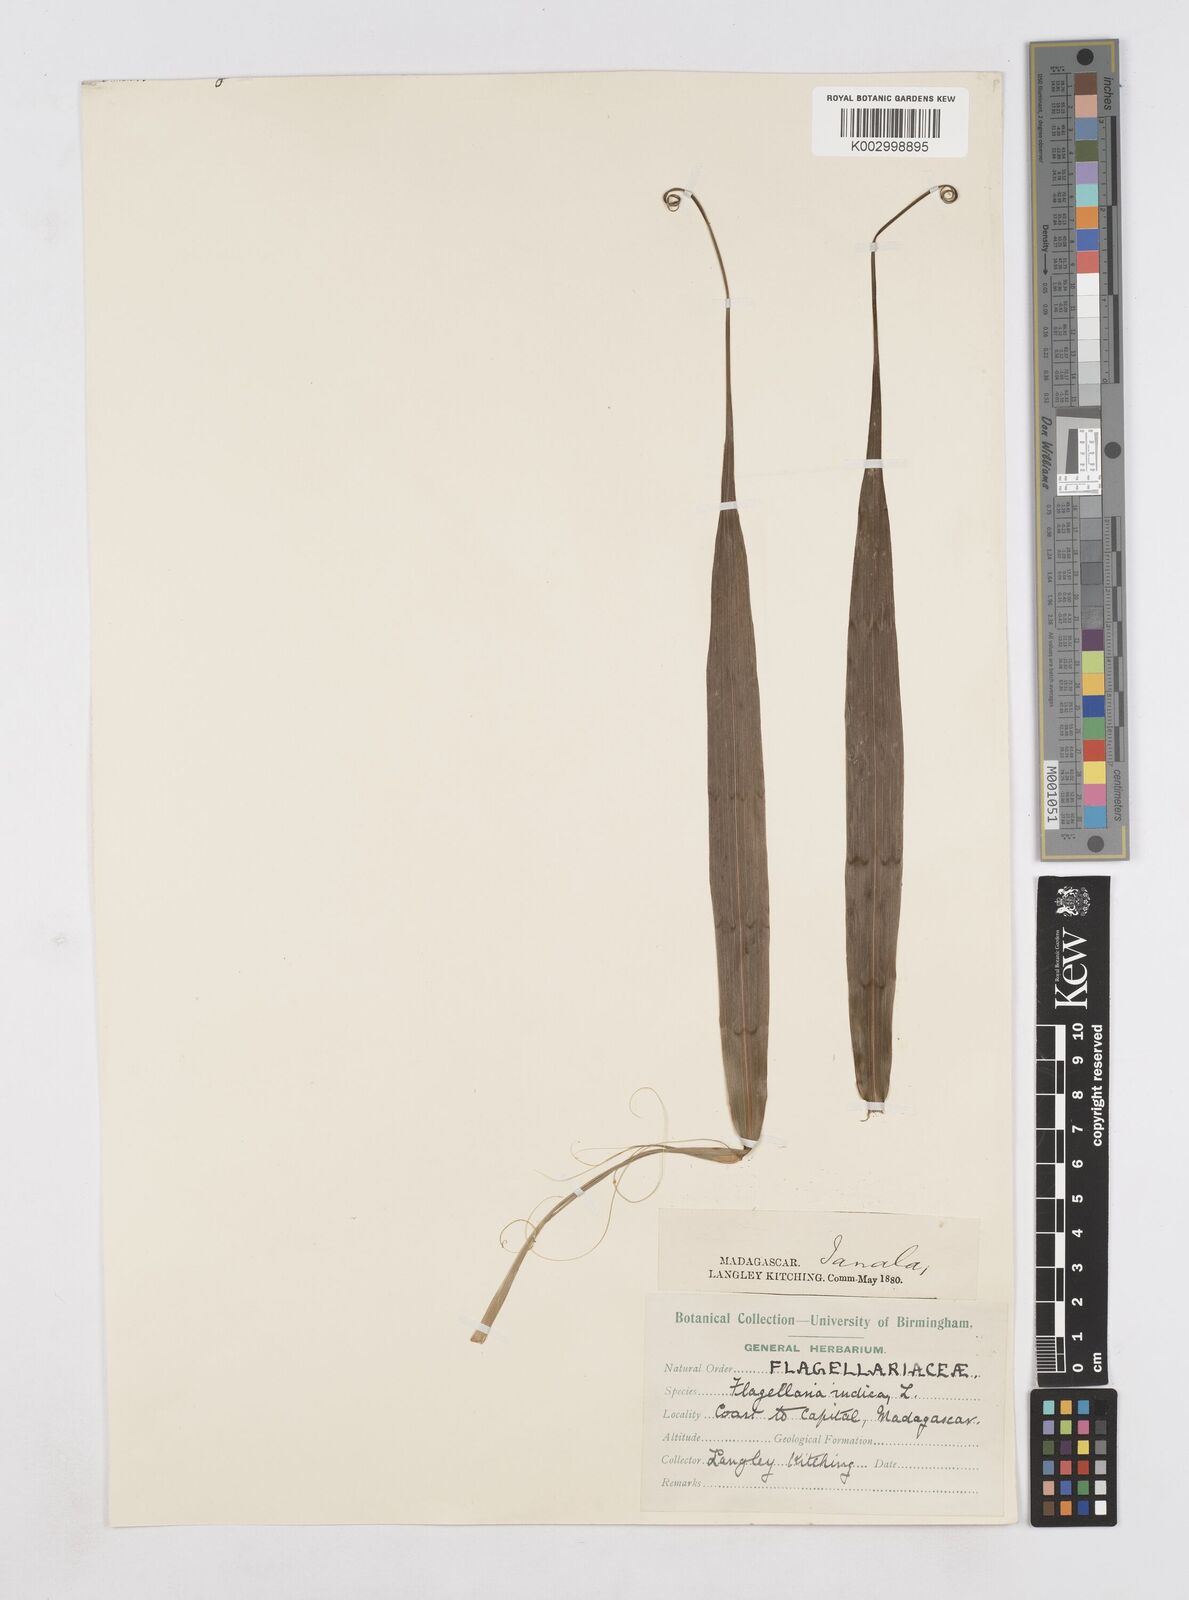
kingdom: Plantae
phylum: Tracheophyta
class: Liliopsida
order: Poales
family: Flagellariaceae
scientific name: Flagellariaceae
